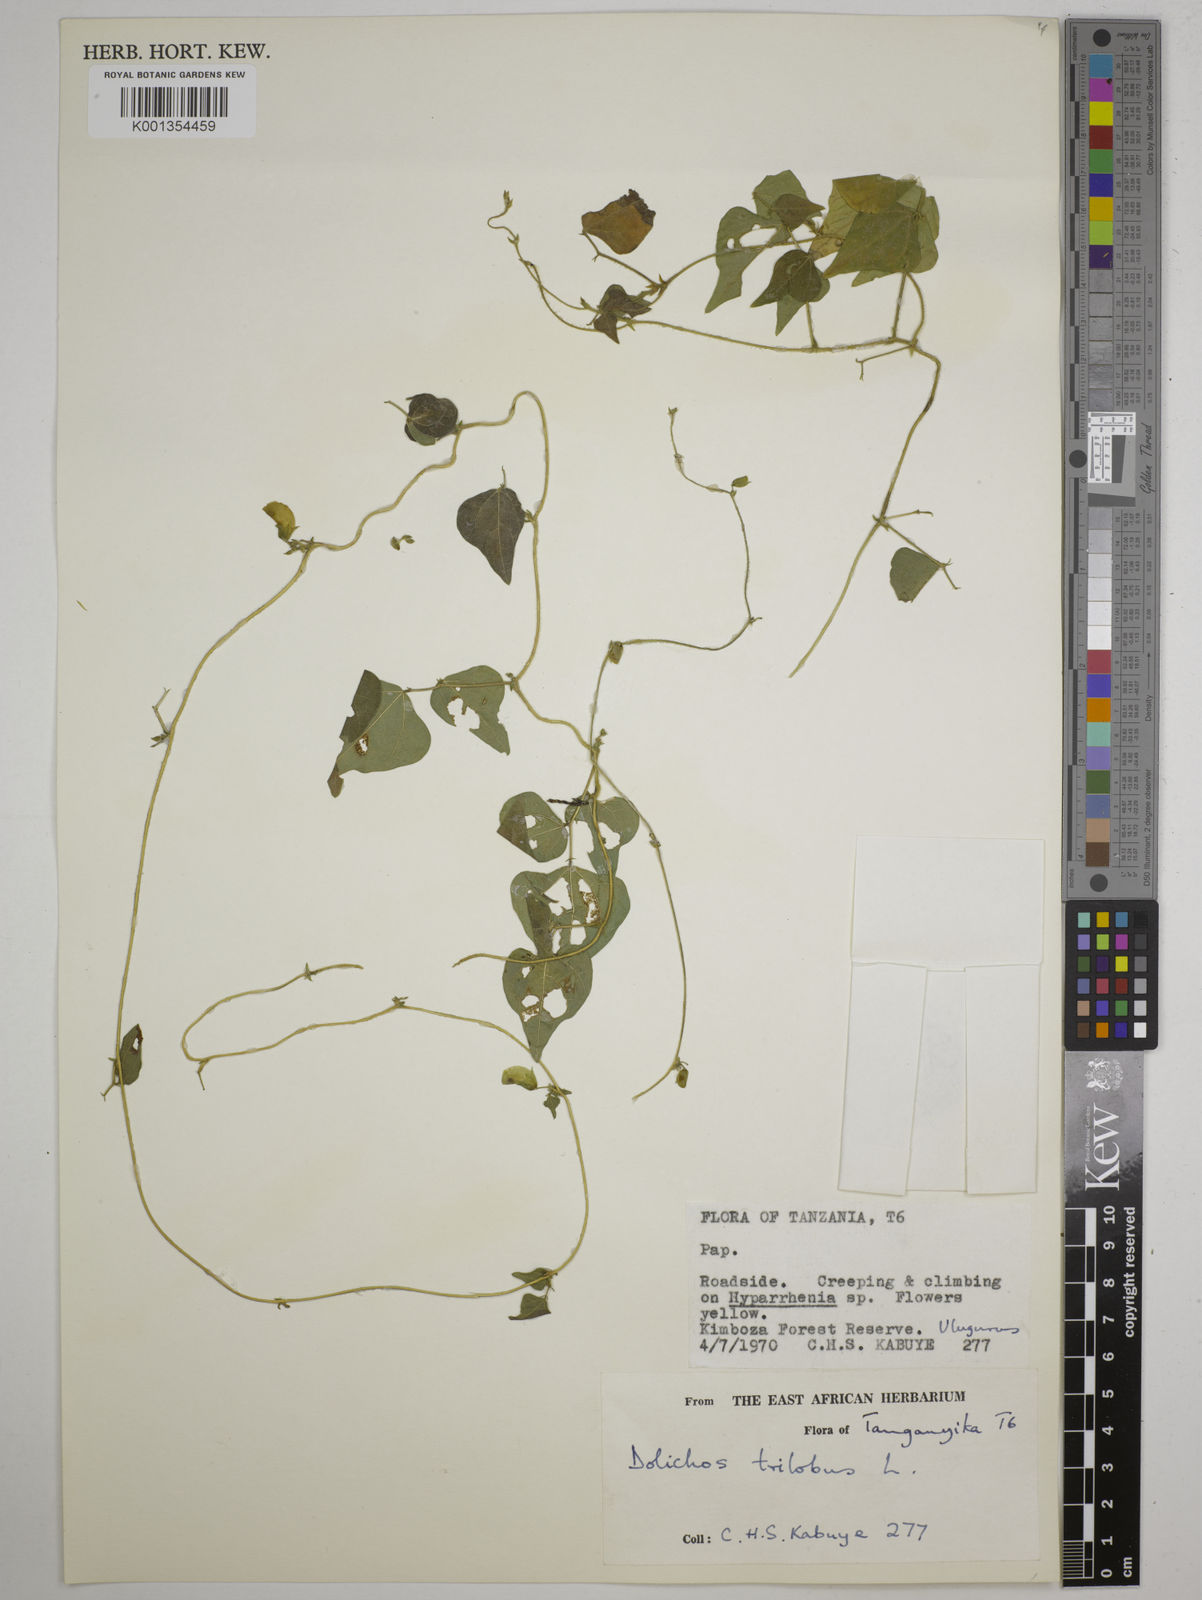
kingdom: Plantae
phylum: Tracheophyta
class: Magnoliopsida
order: Fabales
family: Fabaceae
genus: Dolichos
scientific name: Dolichos
